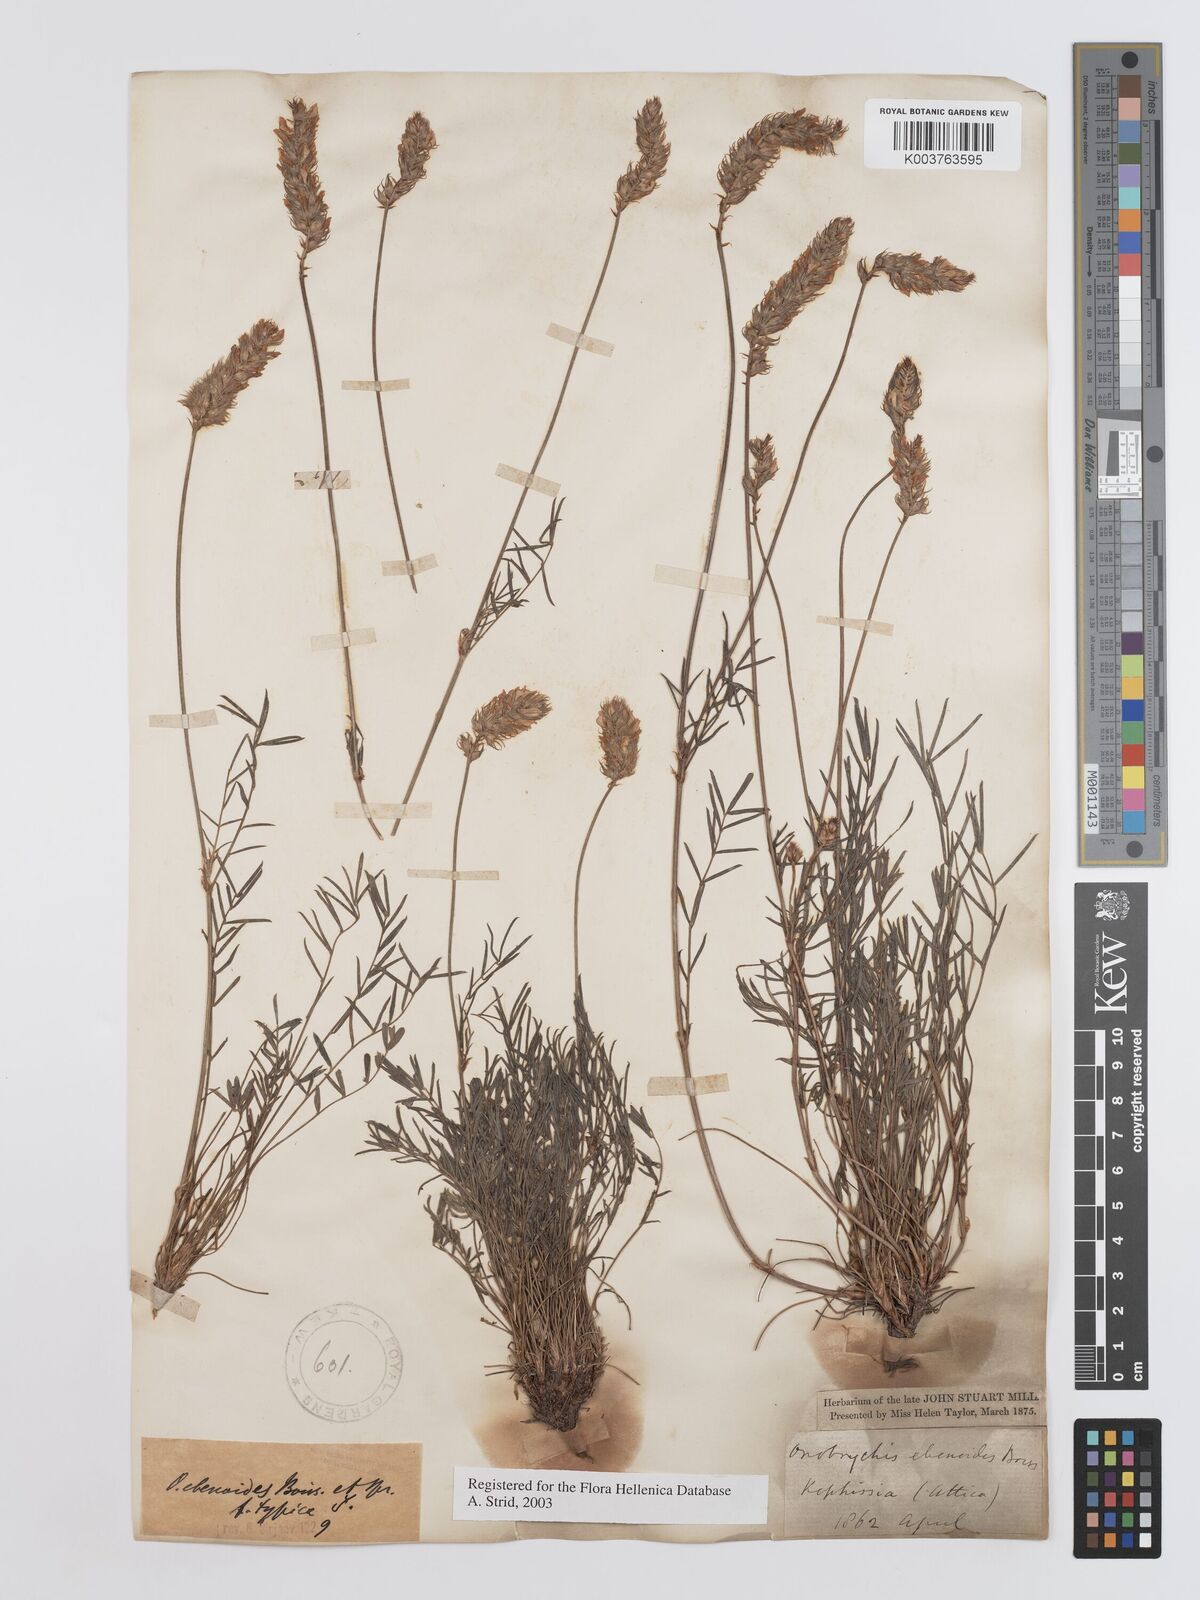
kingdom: Plantae
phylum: Tracheophyta
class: Magnoliopsida
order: Fabales
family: Fabaceae
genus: Onobrychis
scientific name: Onobrychis ebenoides
